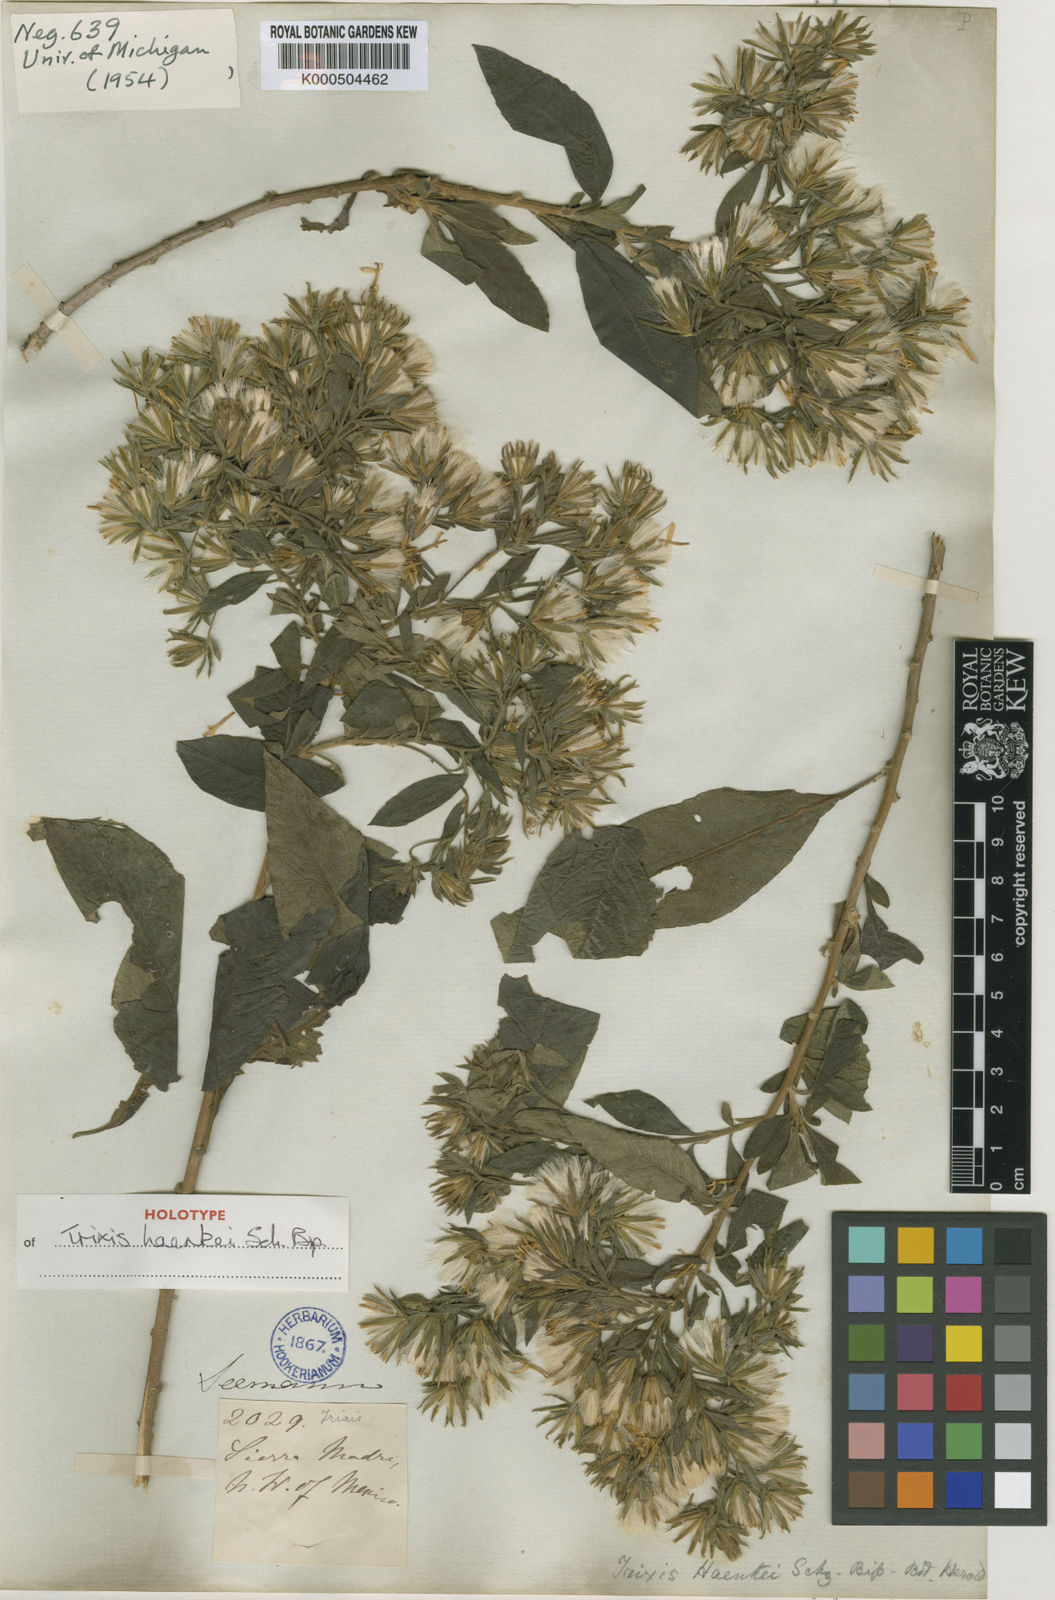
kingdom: Plantae
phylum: Tracheophyta
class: Magnoliopsida
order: Asterales
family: Asteraceae
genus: Trixis
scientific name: Trixis haenkei
